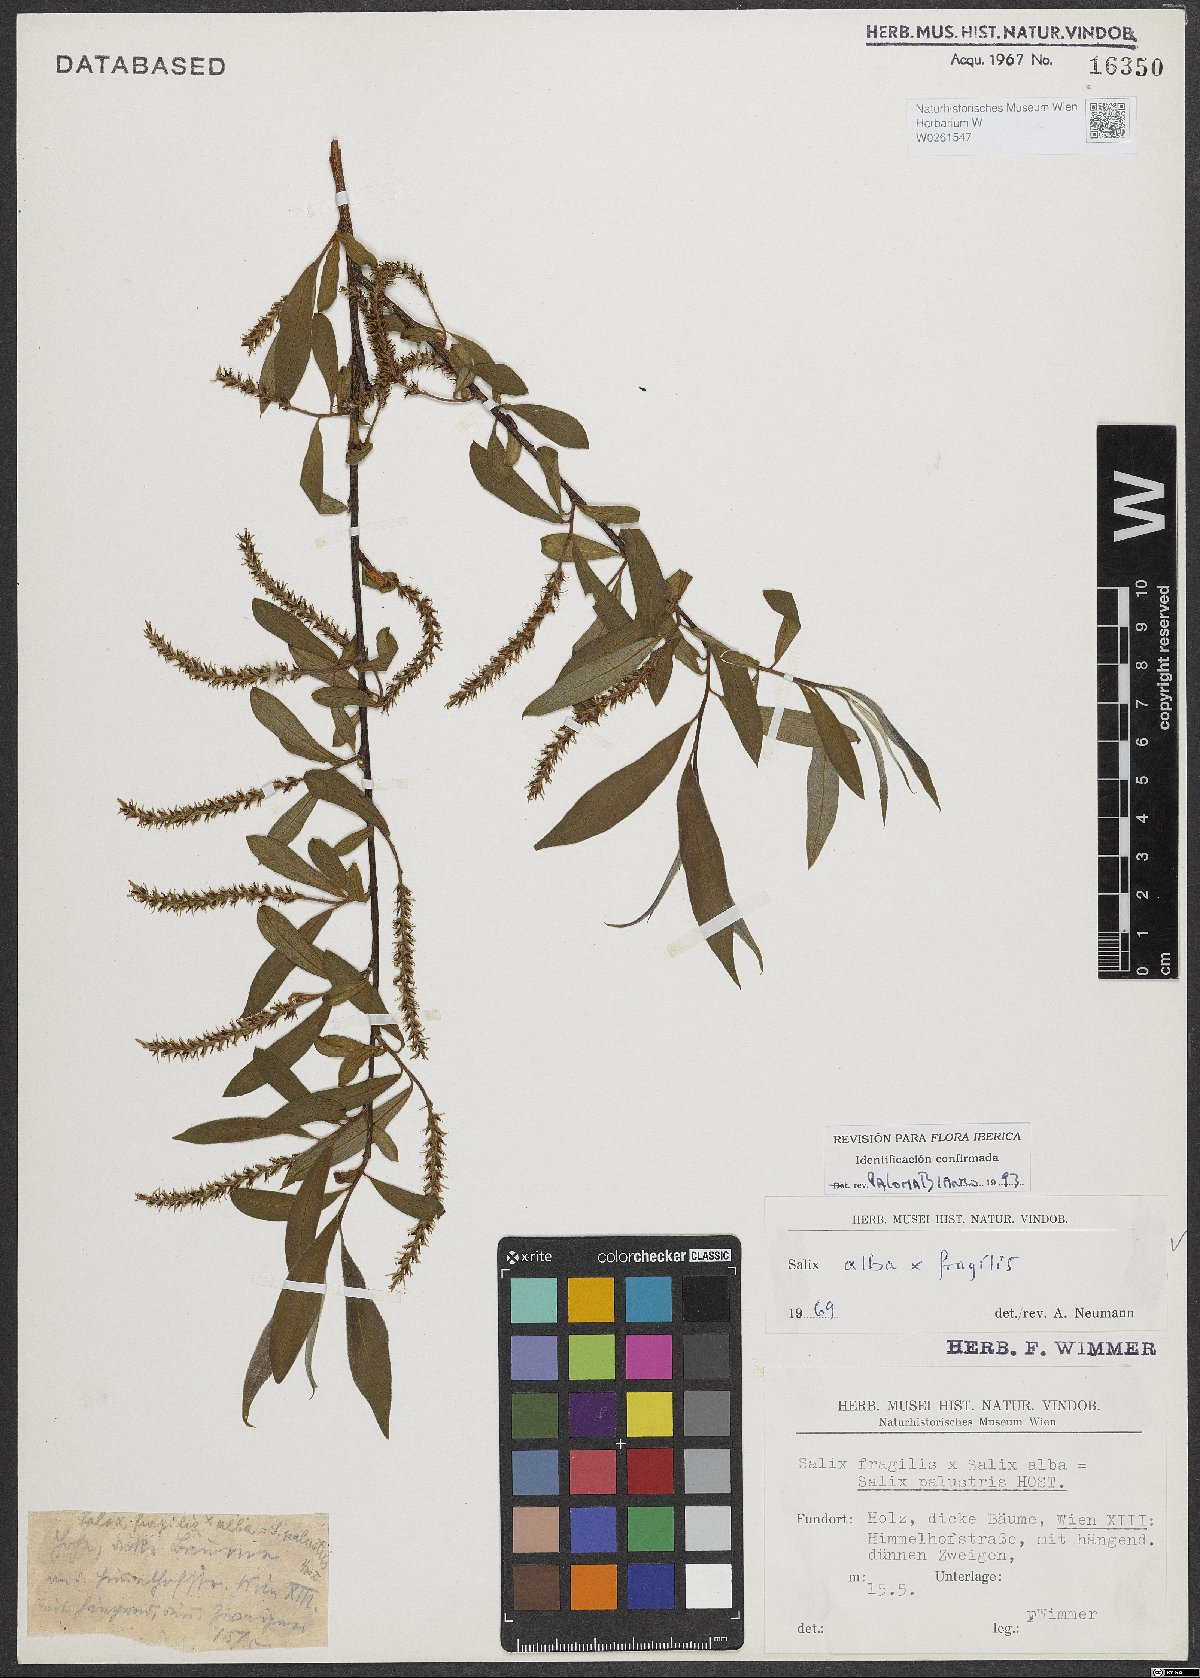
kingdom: Plantae
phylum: Tracheophyta
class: Magnoliopsida
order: Malpighiales
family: Salicaceae
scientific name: Salicaceae
